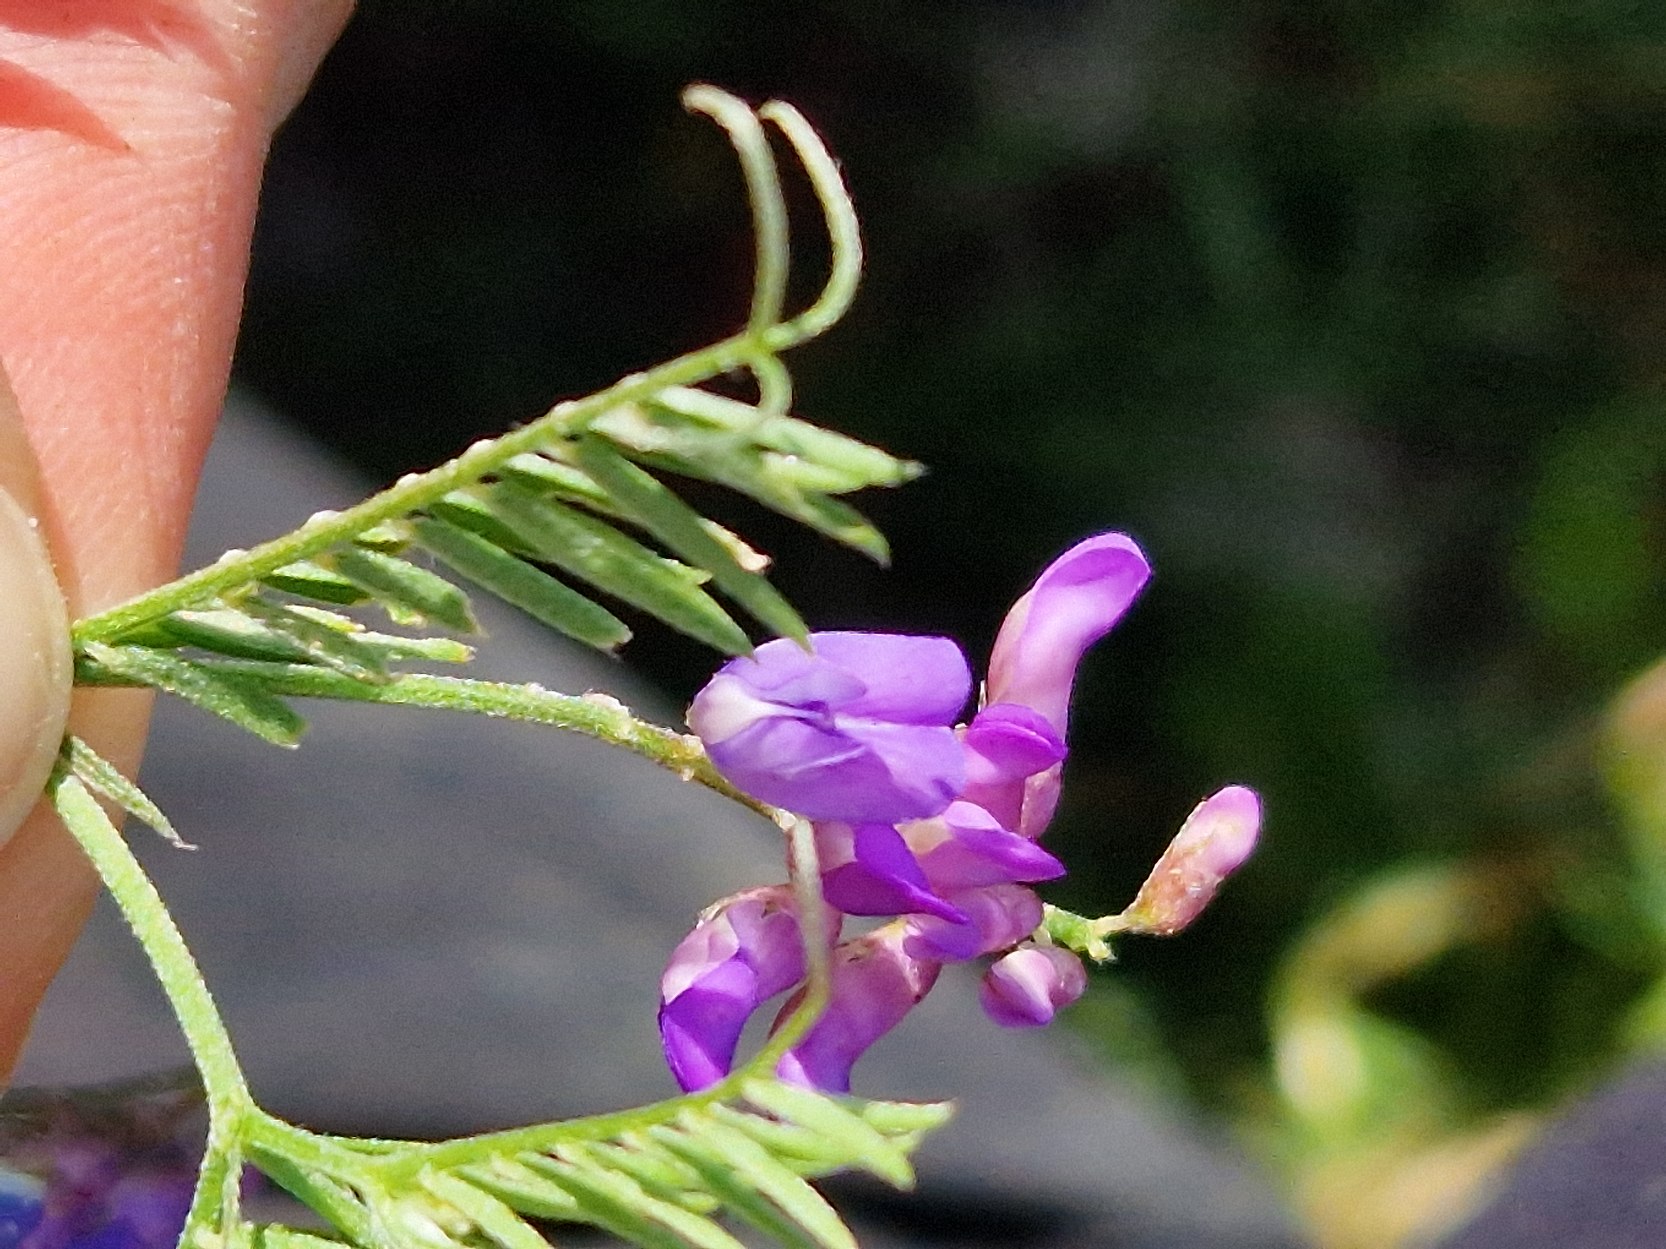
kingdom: Plantae
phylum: Tracheophyta
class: Magnoliopsida
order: Fabales
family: Fabaceae
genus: Vicia
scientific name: Vicia cracca
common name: Muse-vikke
